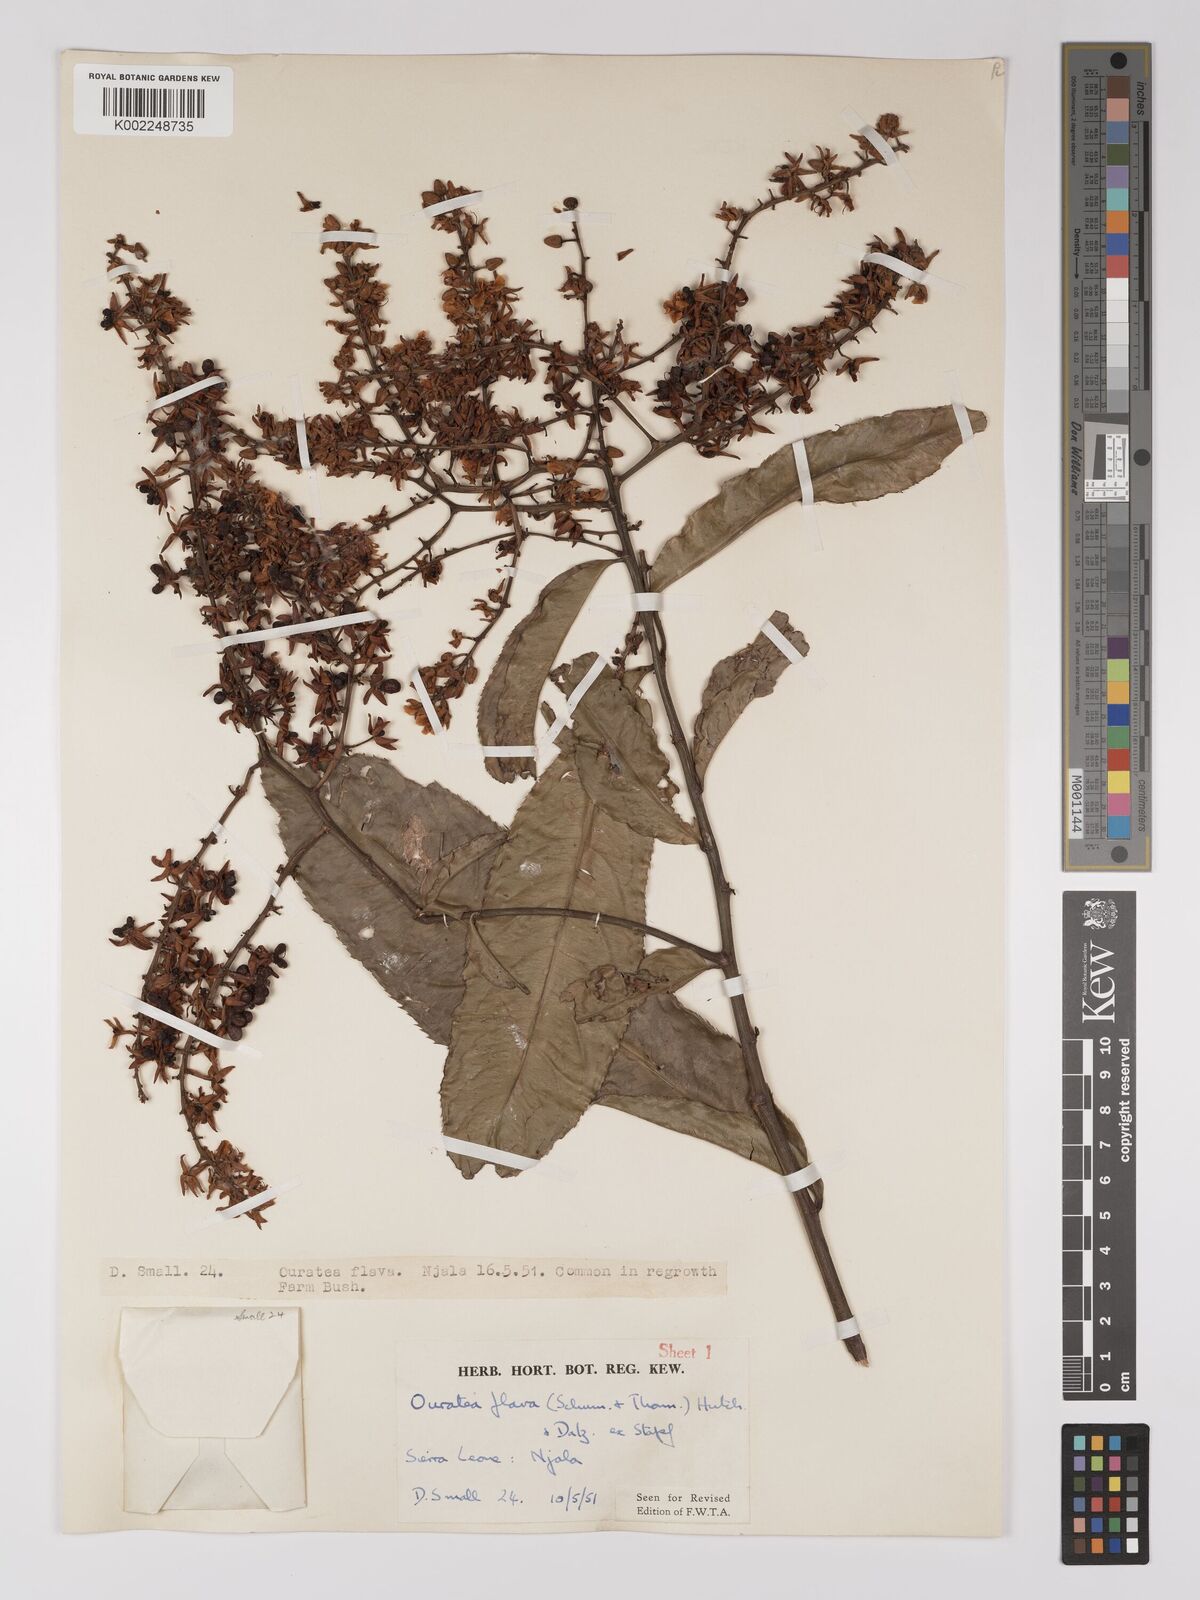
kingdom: Plantae
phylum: Tracheophyta
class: Magnoliopsida
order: Malpighiales
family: Ochnaceae
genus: Campylospermum
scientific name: Campylospermum flavum
